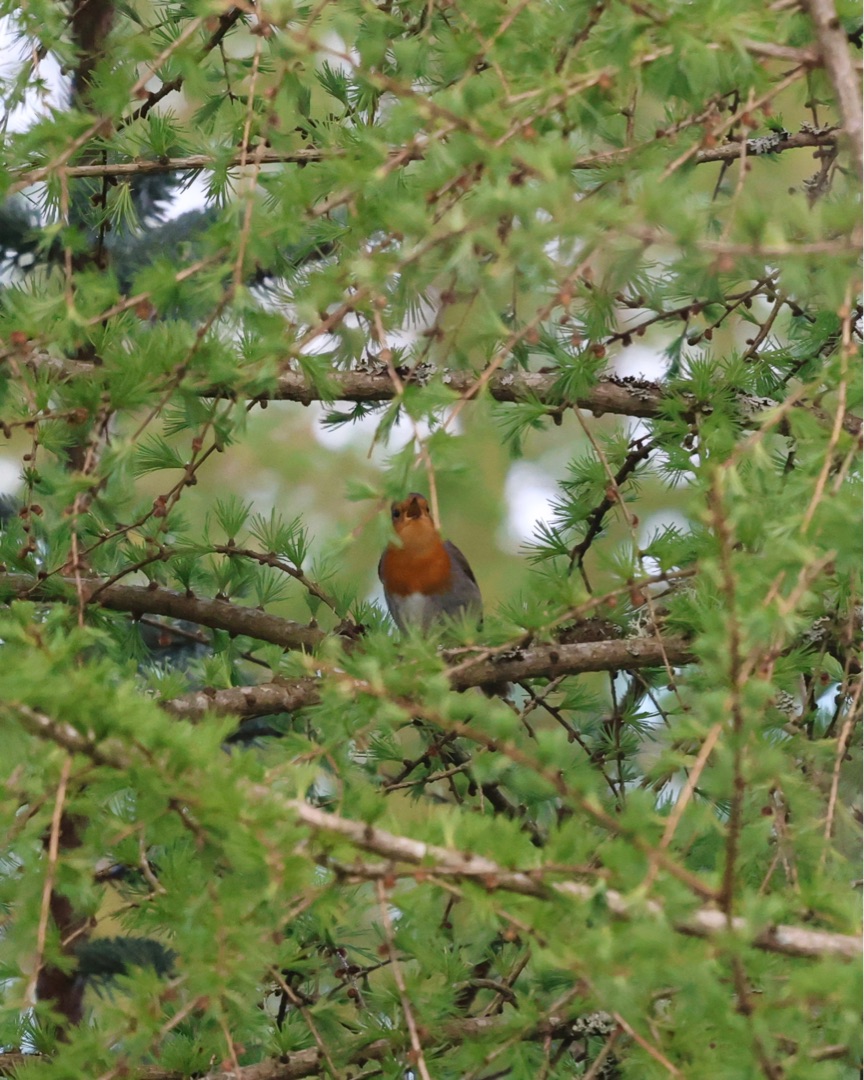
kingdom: Animalia
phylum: Chordata
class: Aves
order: Passeriformes
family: Muscicapidae
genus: Erithacus
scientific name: Erithacus rubecula
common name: Rødhals/rødkælk
